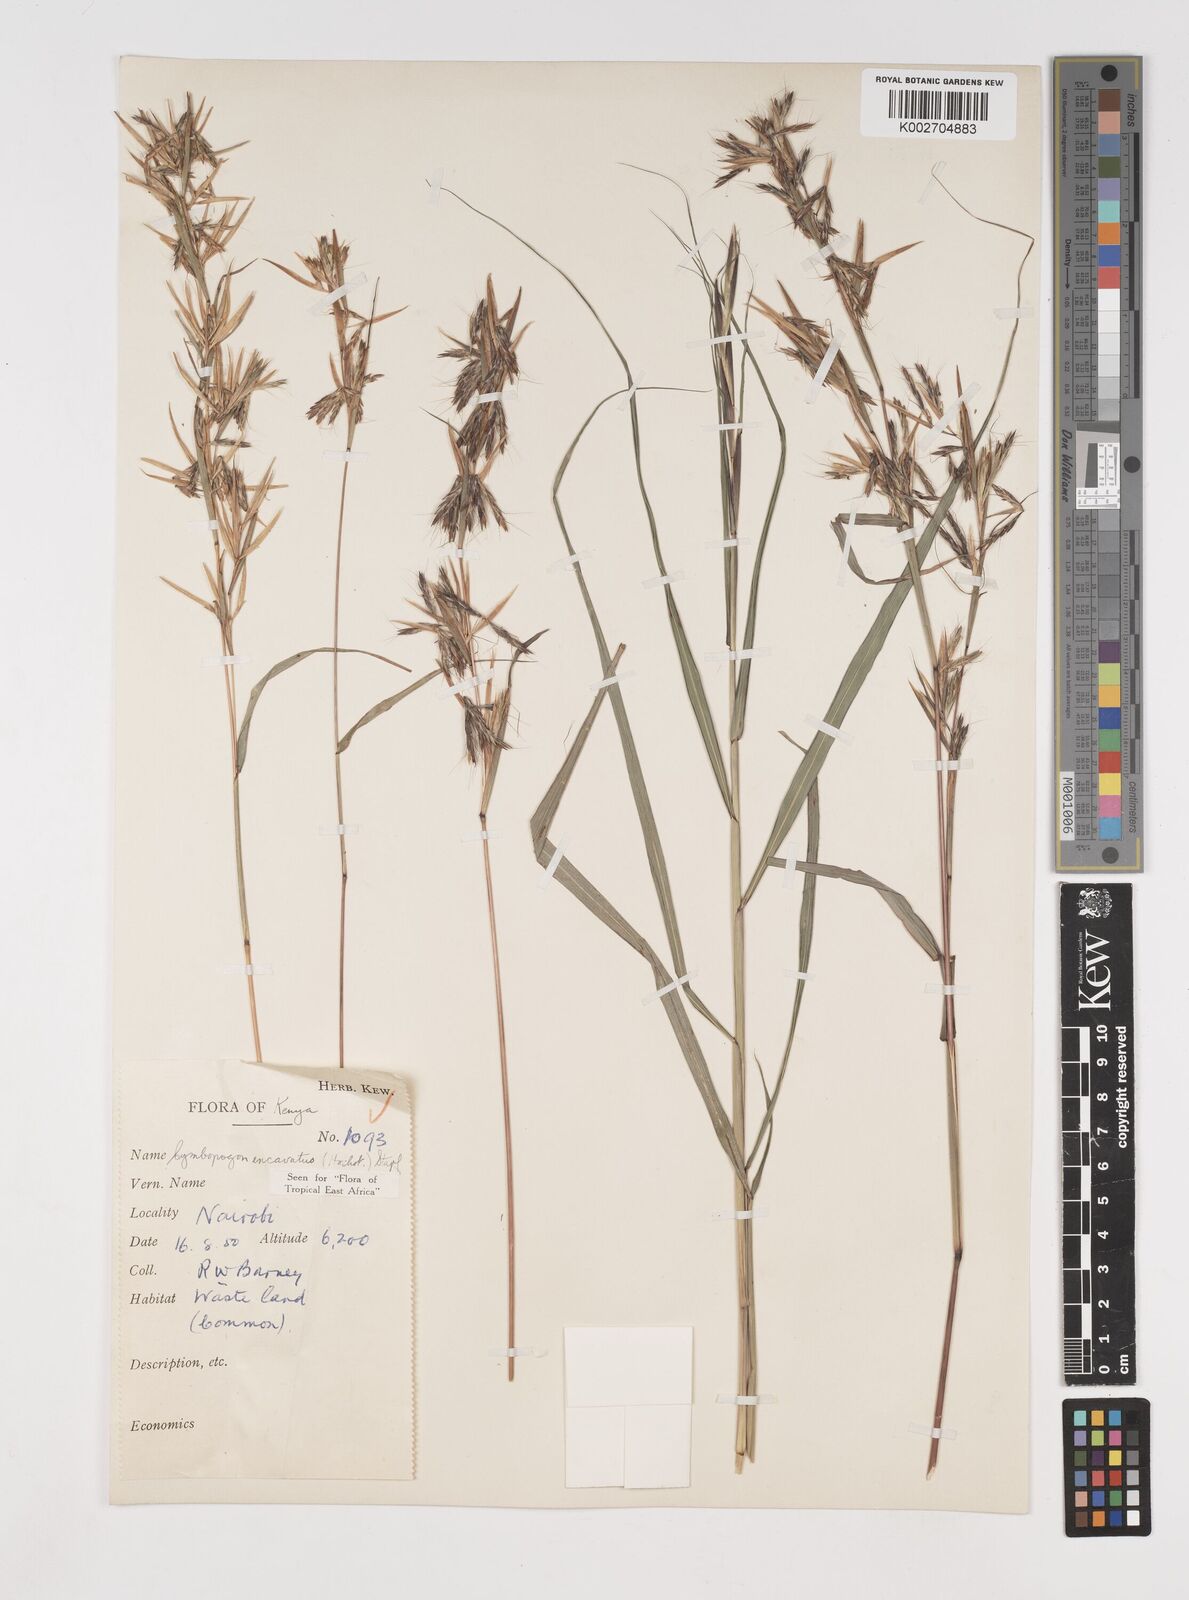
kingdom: Plantae
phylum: Tracheophyta
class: Liliopsida
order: Poales
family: Poaceae
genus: Cymbopogon
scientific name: Cymbopogon caesius
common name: Kachi grass
